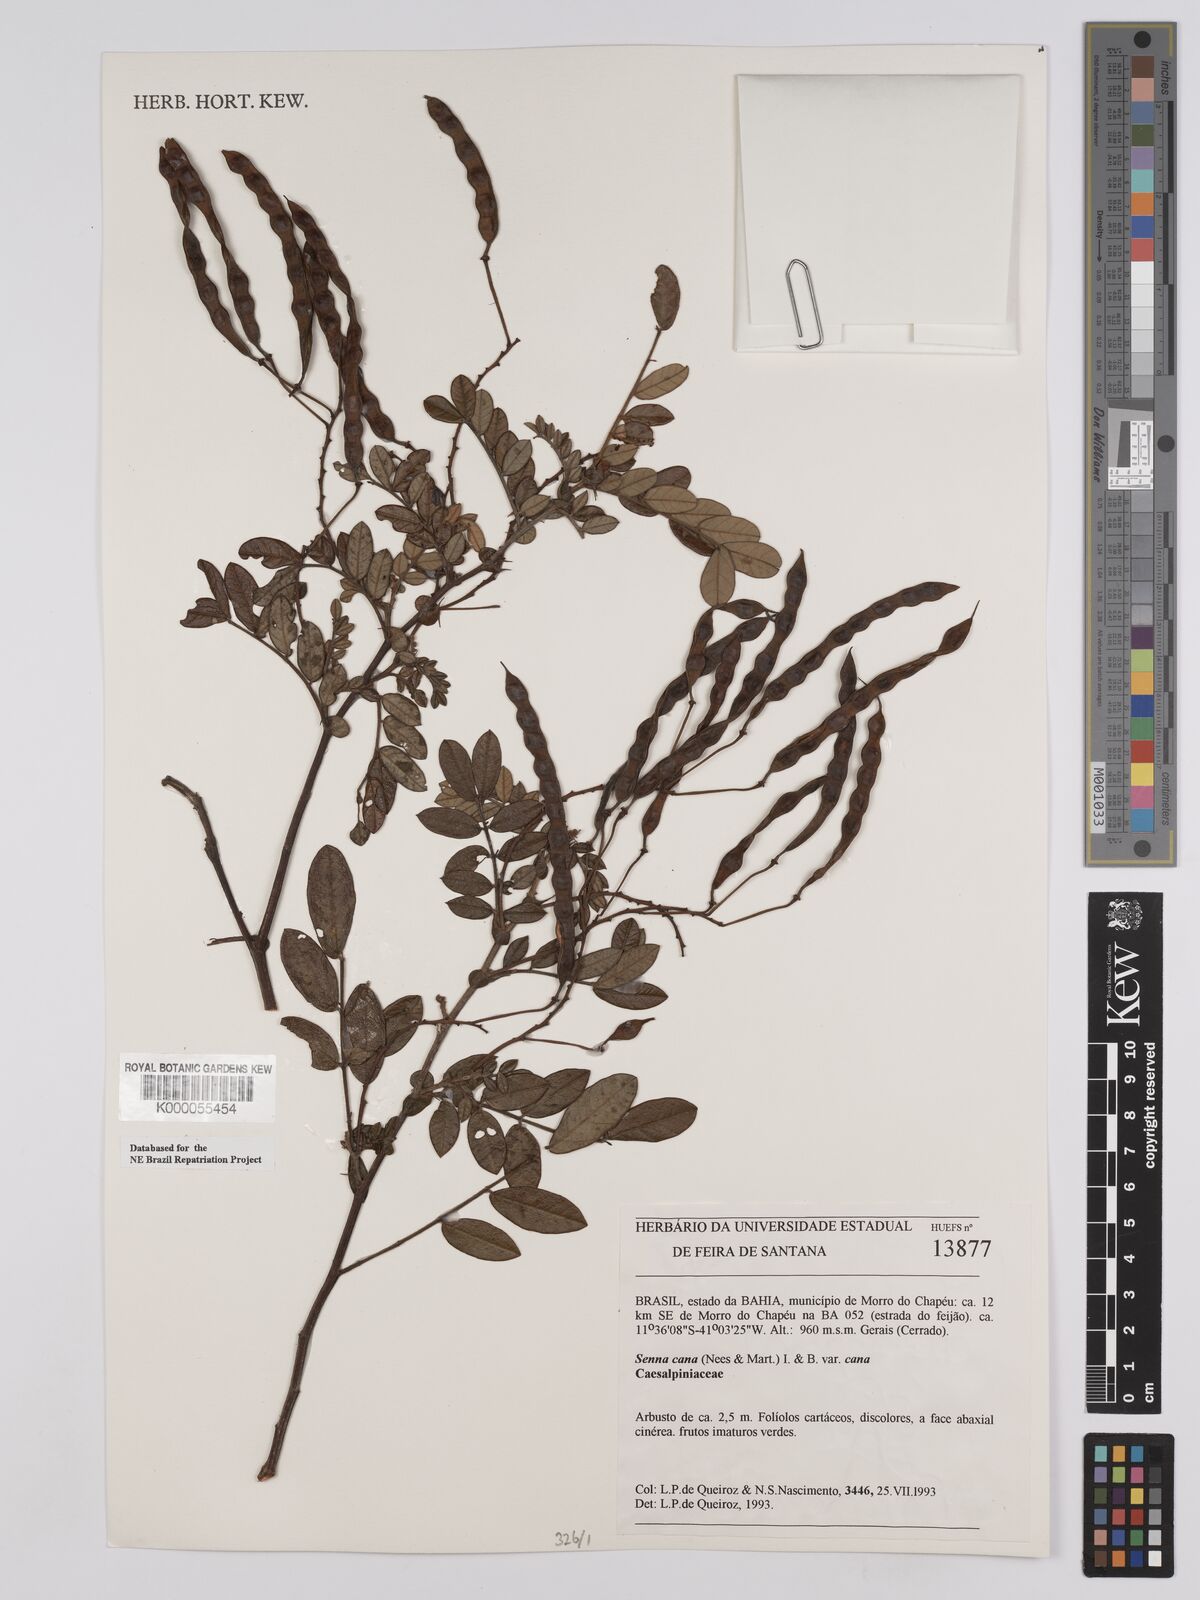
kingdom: Plantae
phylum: Tracheophyta
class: Magnoliopsida
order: Fabales
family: Fabaceae
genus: Senna
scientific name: Senna cana
